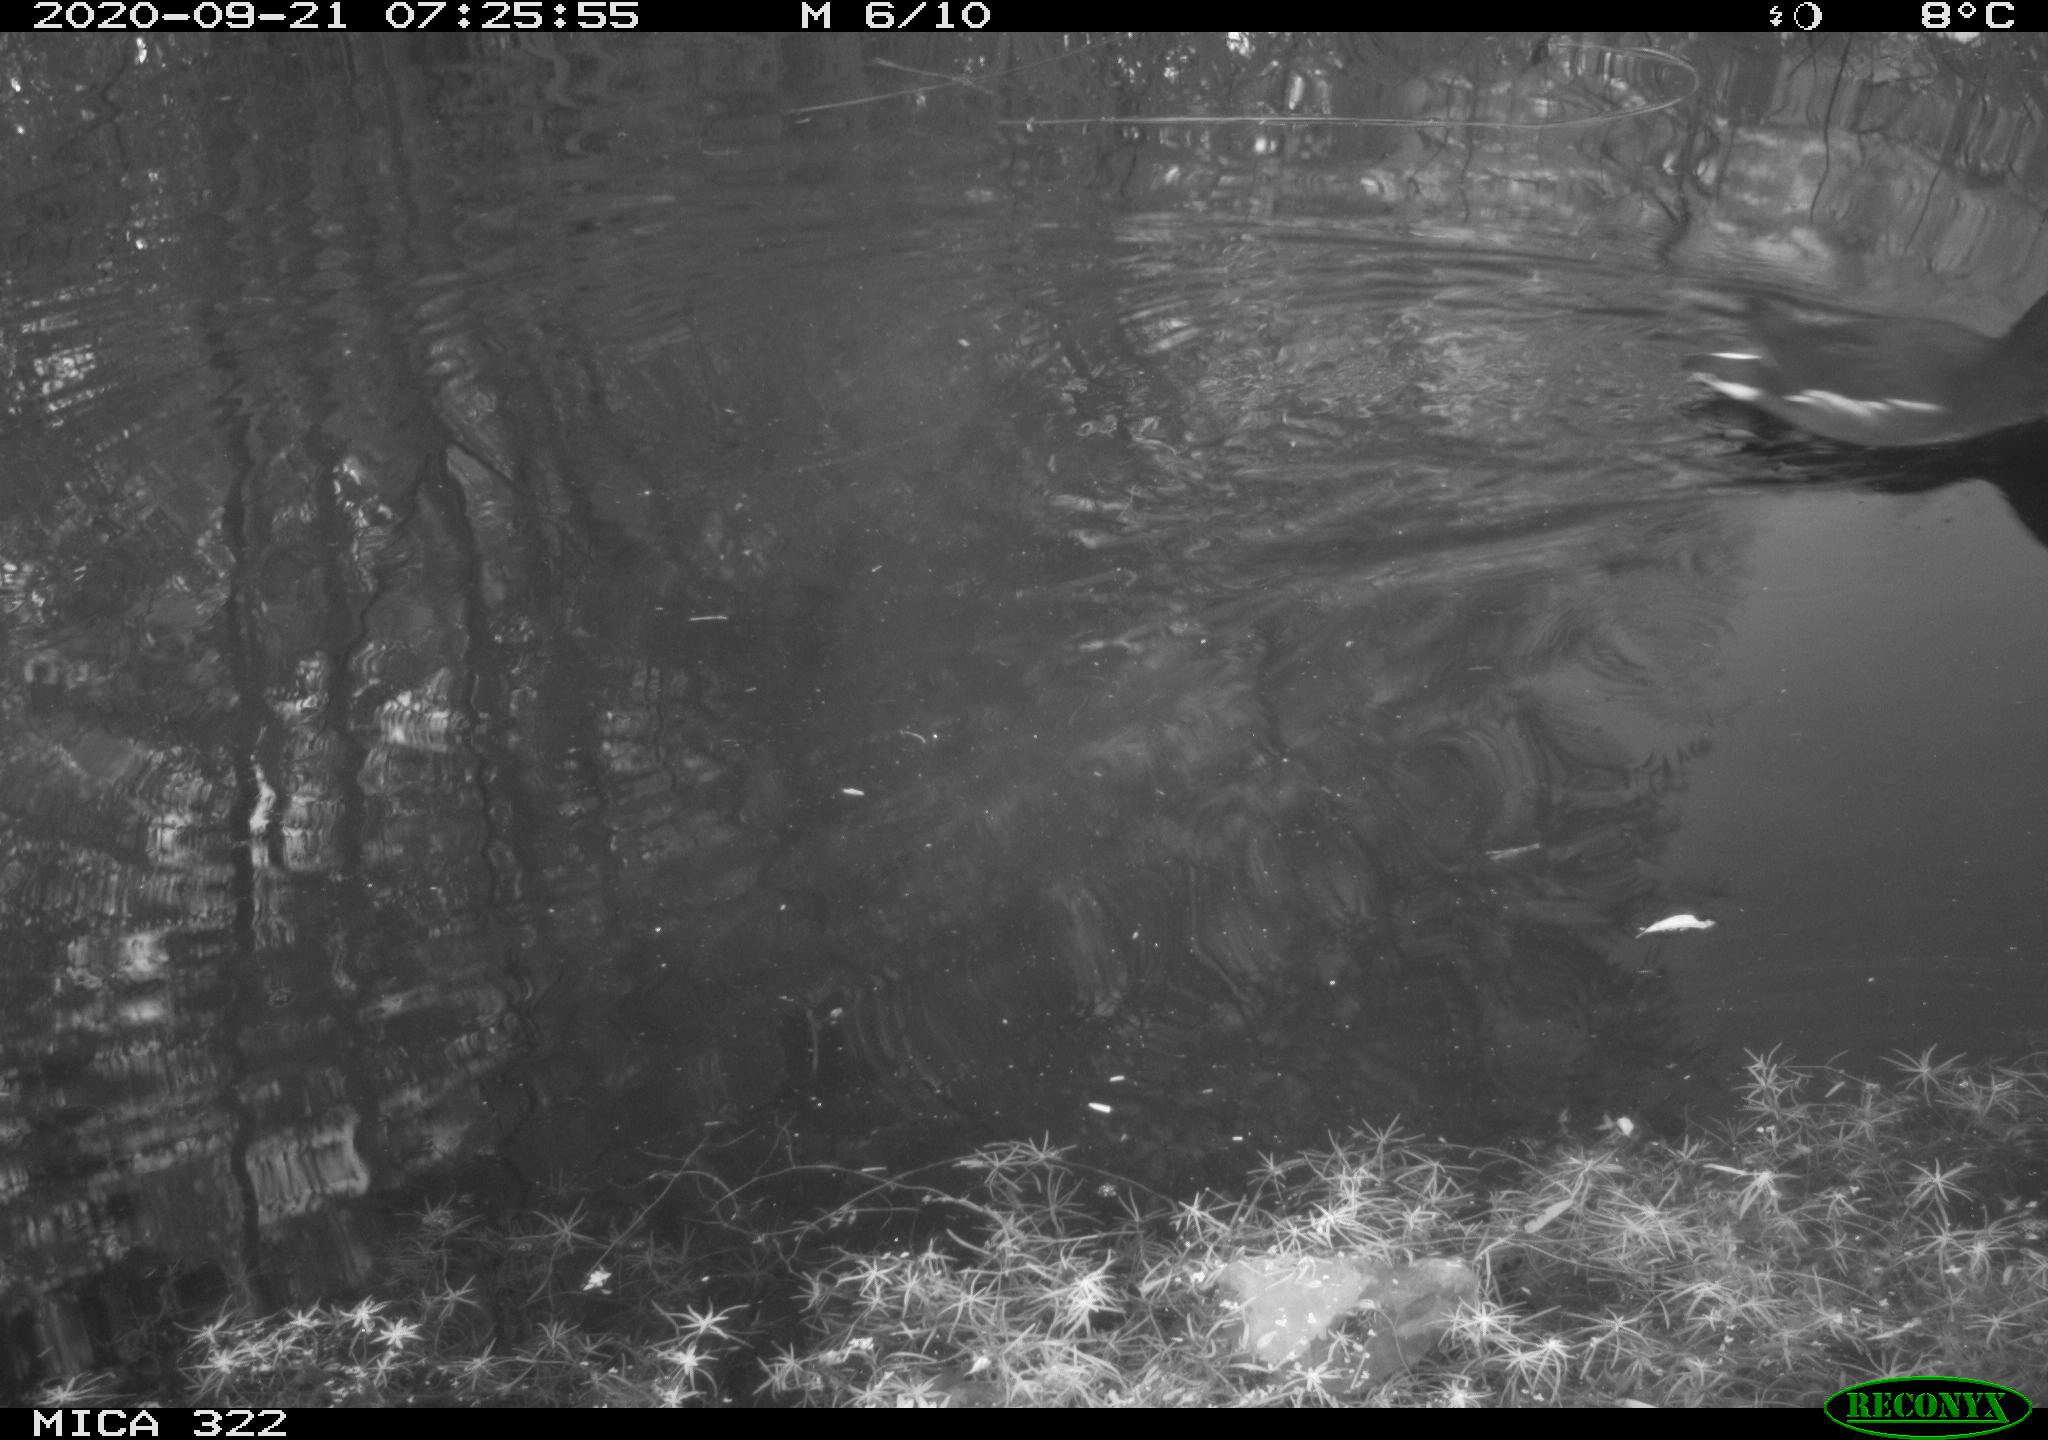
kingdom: Animalia
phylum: Chordata
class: Aves
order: Gruiformes
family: Rallidae
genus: Gallinula
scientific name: Gallinula chloropus
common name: Common moorhen
